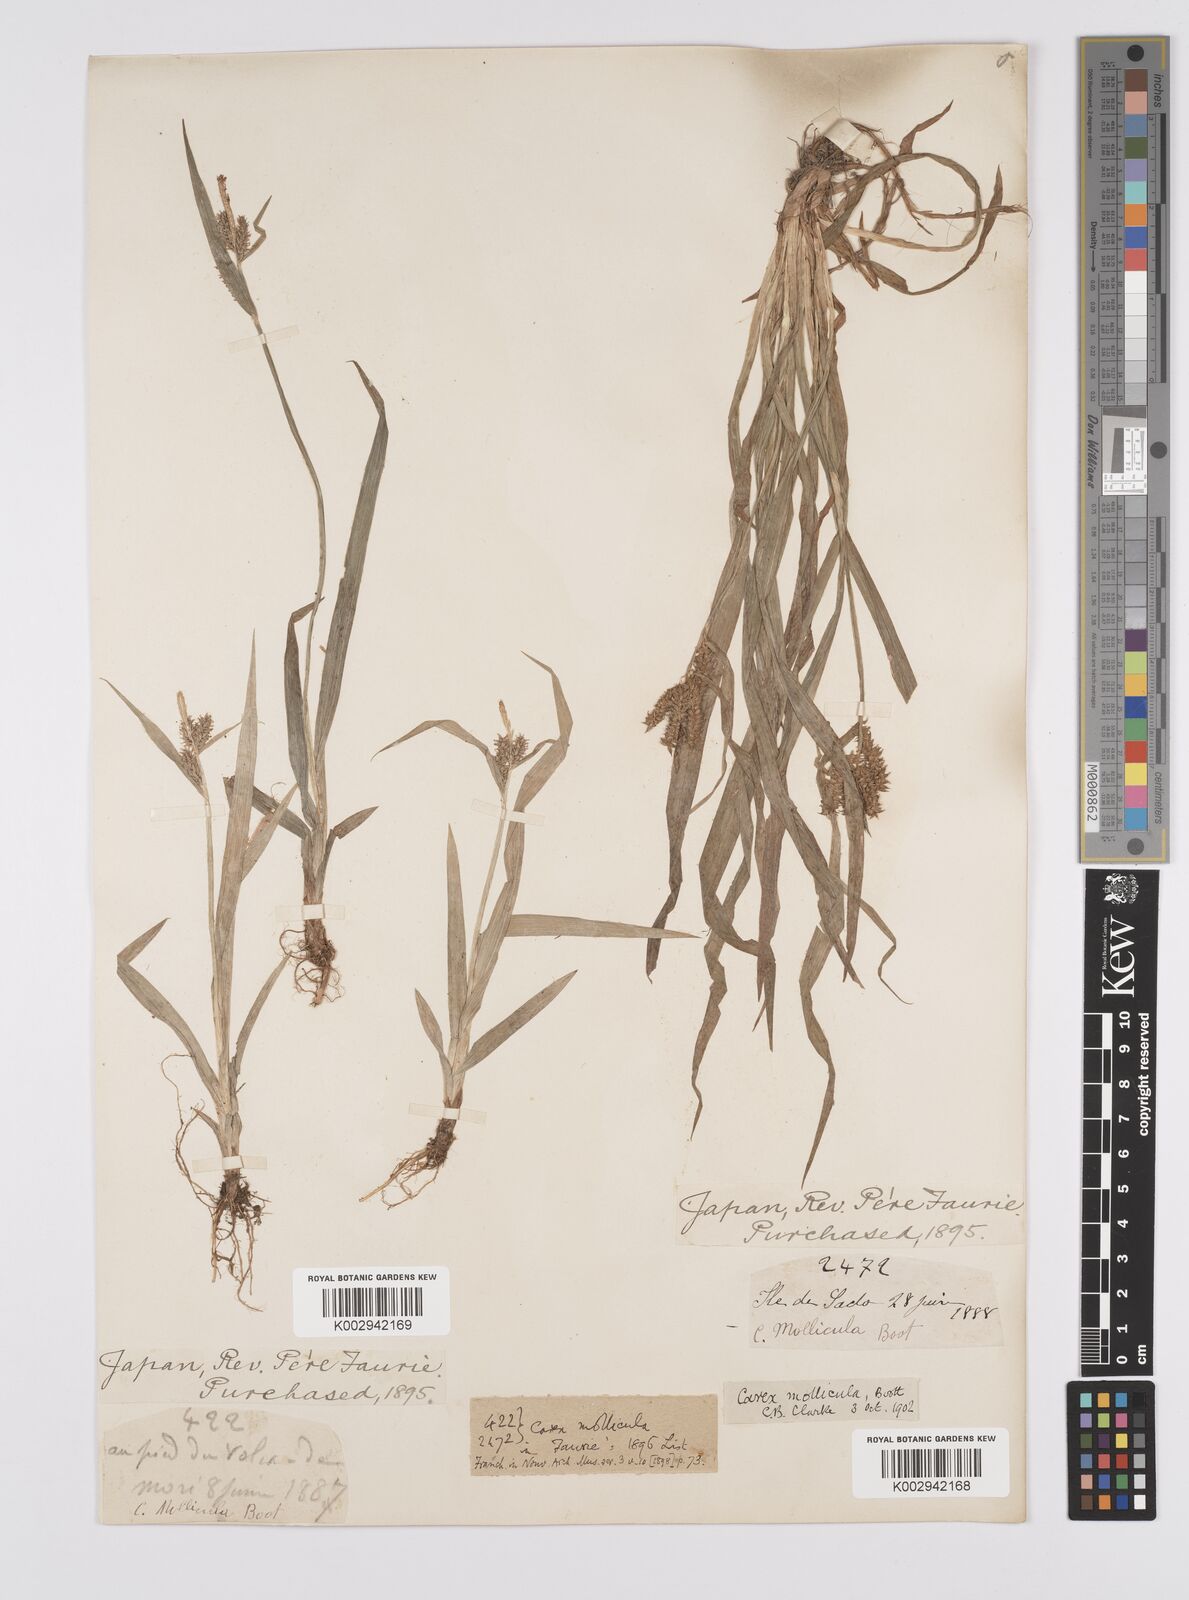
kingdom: Plantae
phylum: Tracheophyta
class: Liliopsida
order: Poales
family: Cyperaceae
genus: Carex
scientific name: Carex mollicula
